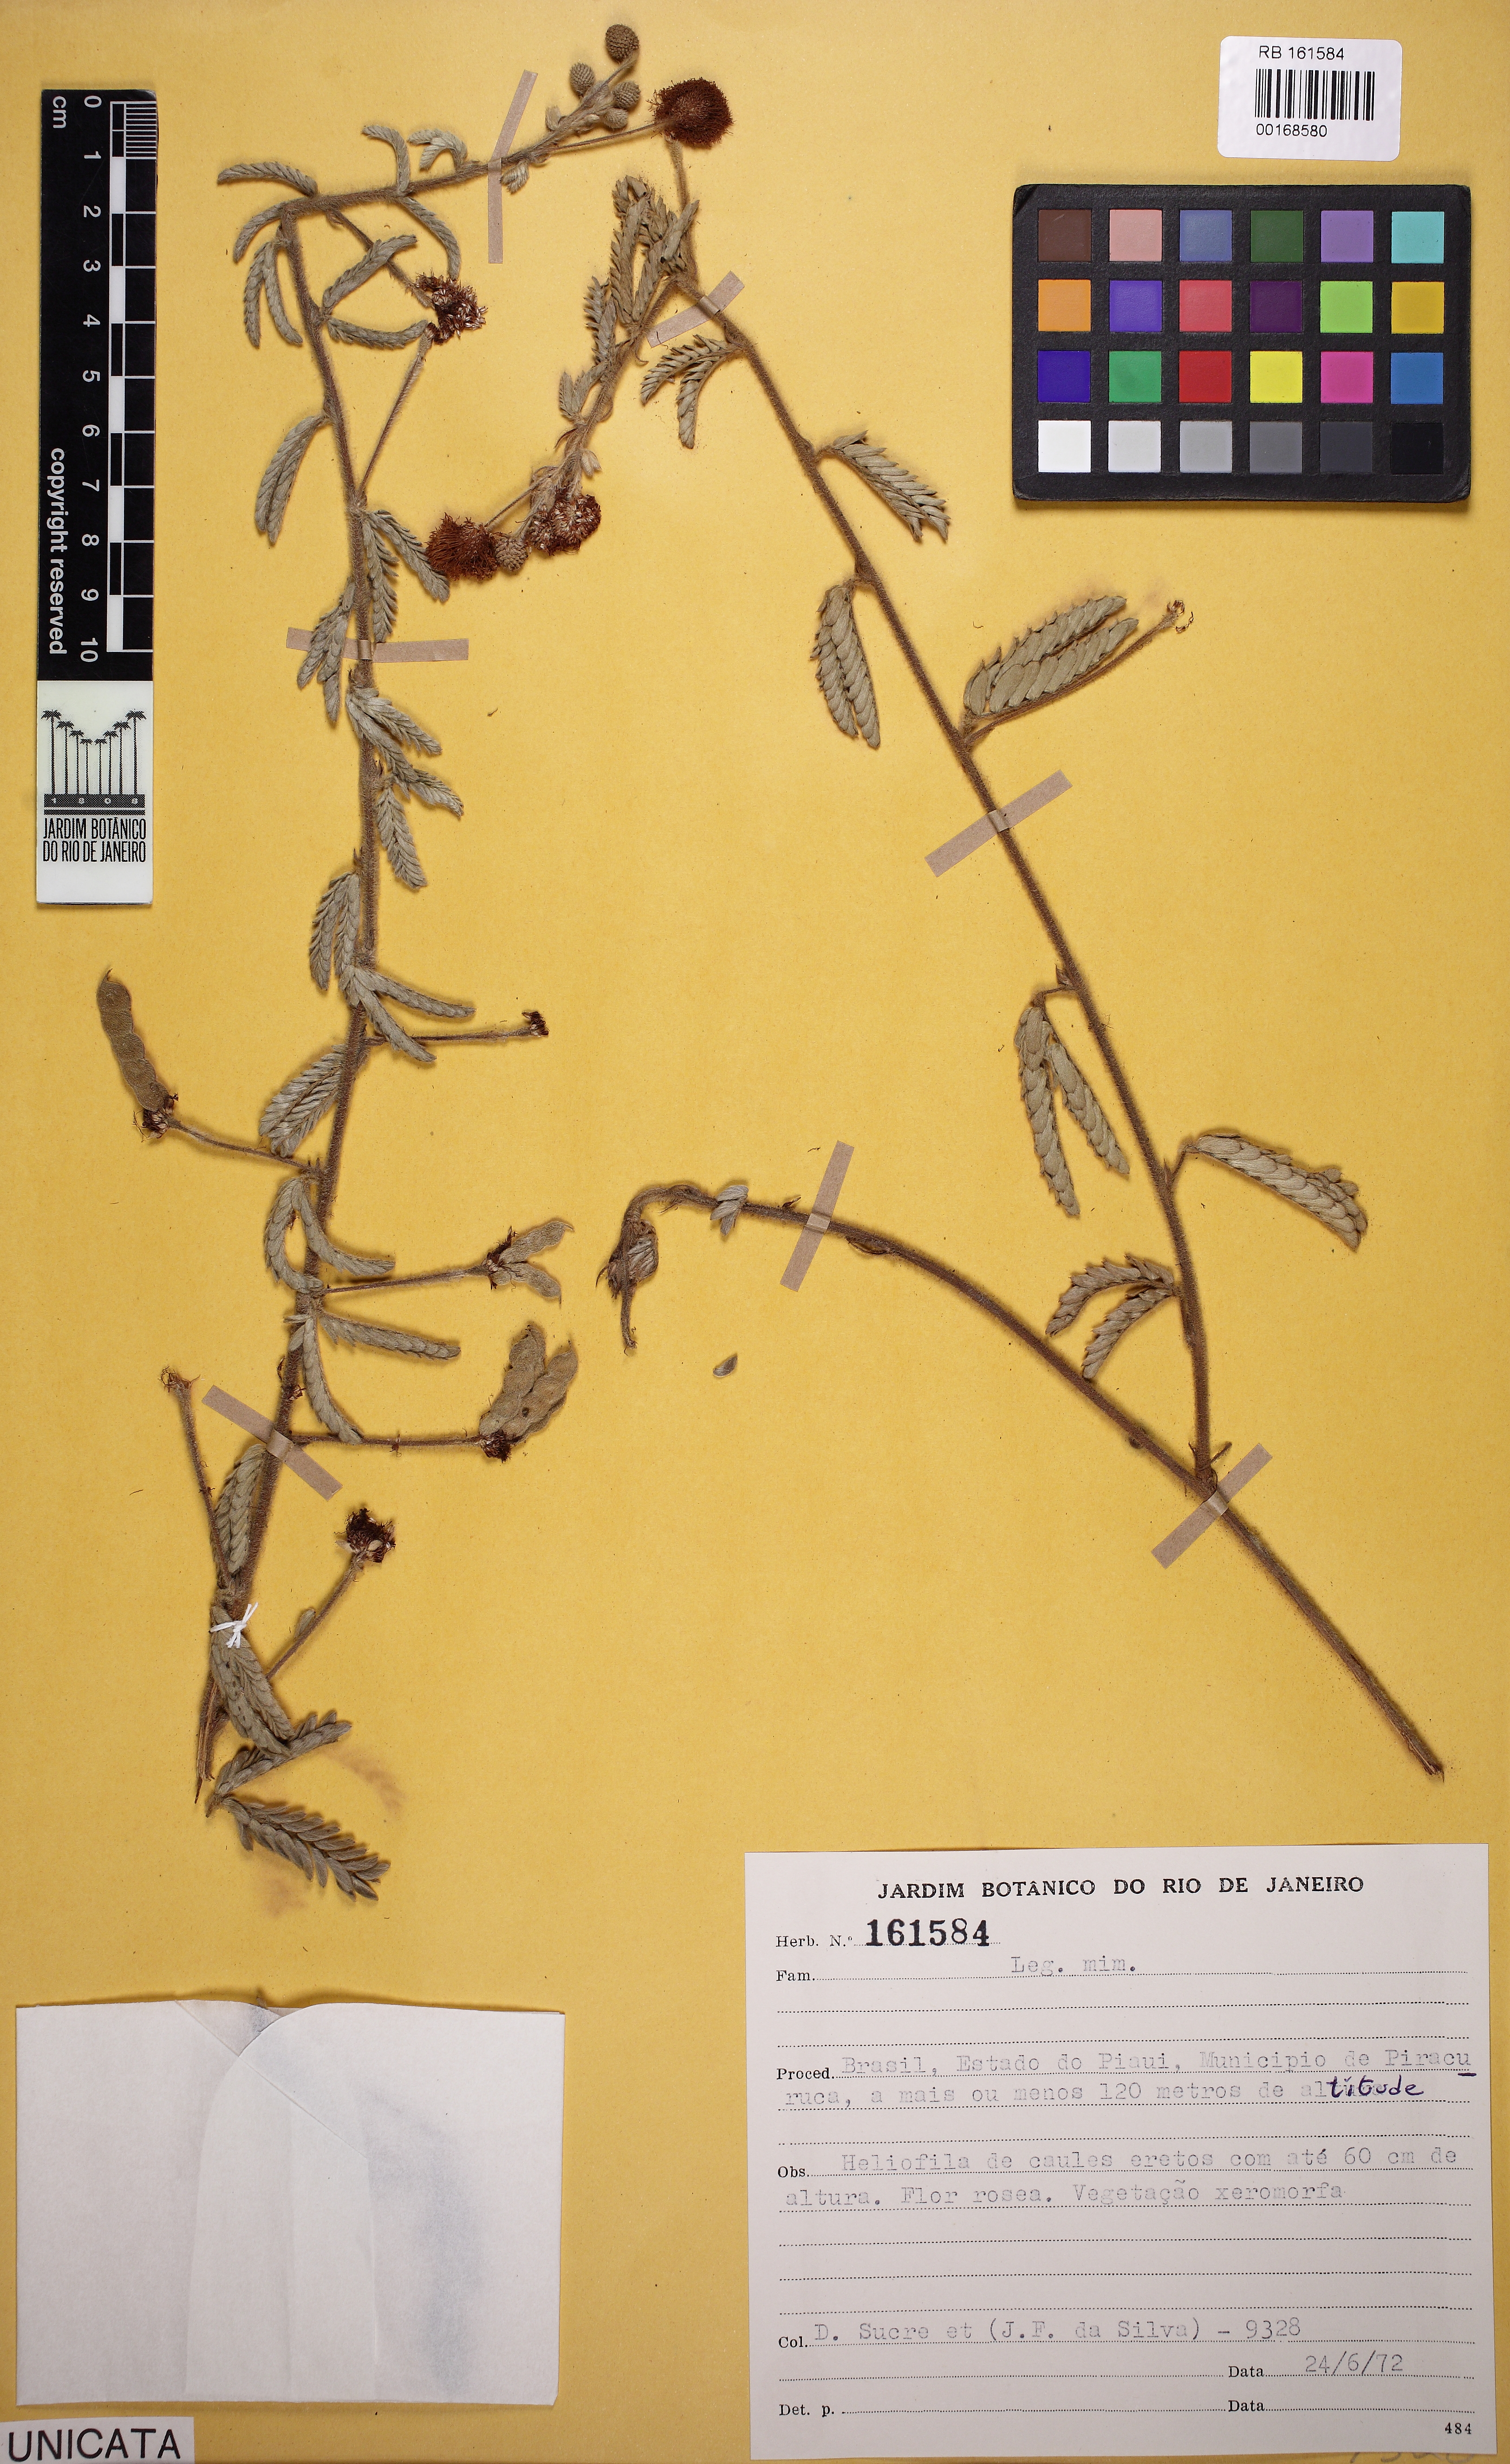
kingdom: Plantae
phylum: Tracheophyta
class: Magnoliopsida
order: Fabales
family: Fabaceae
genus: Mimosa
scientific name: Mimosa
